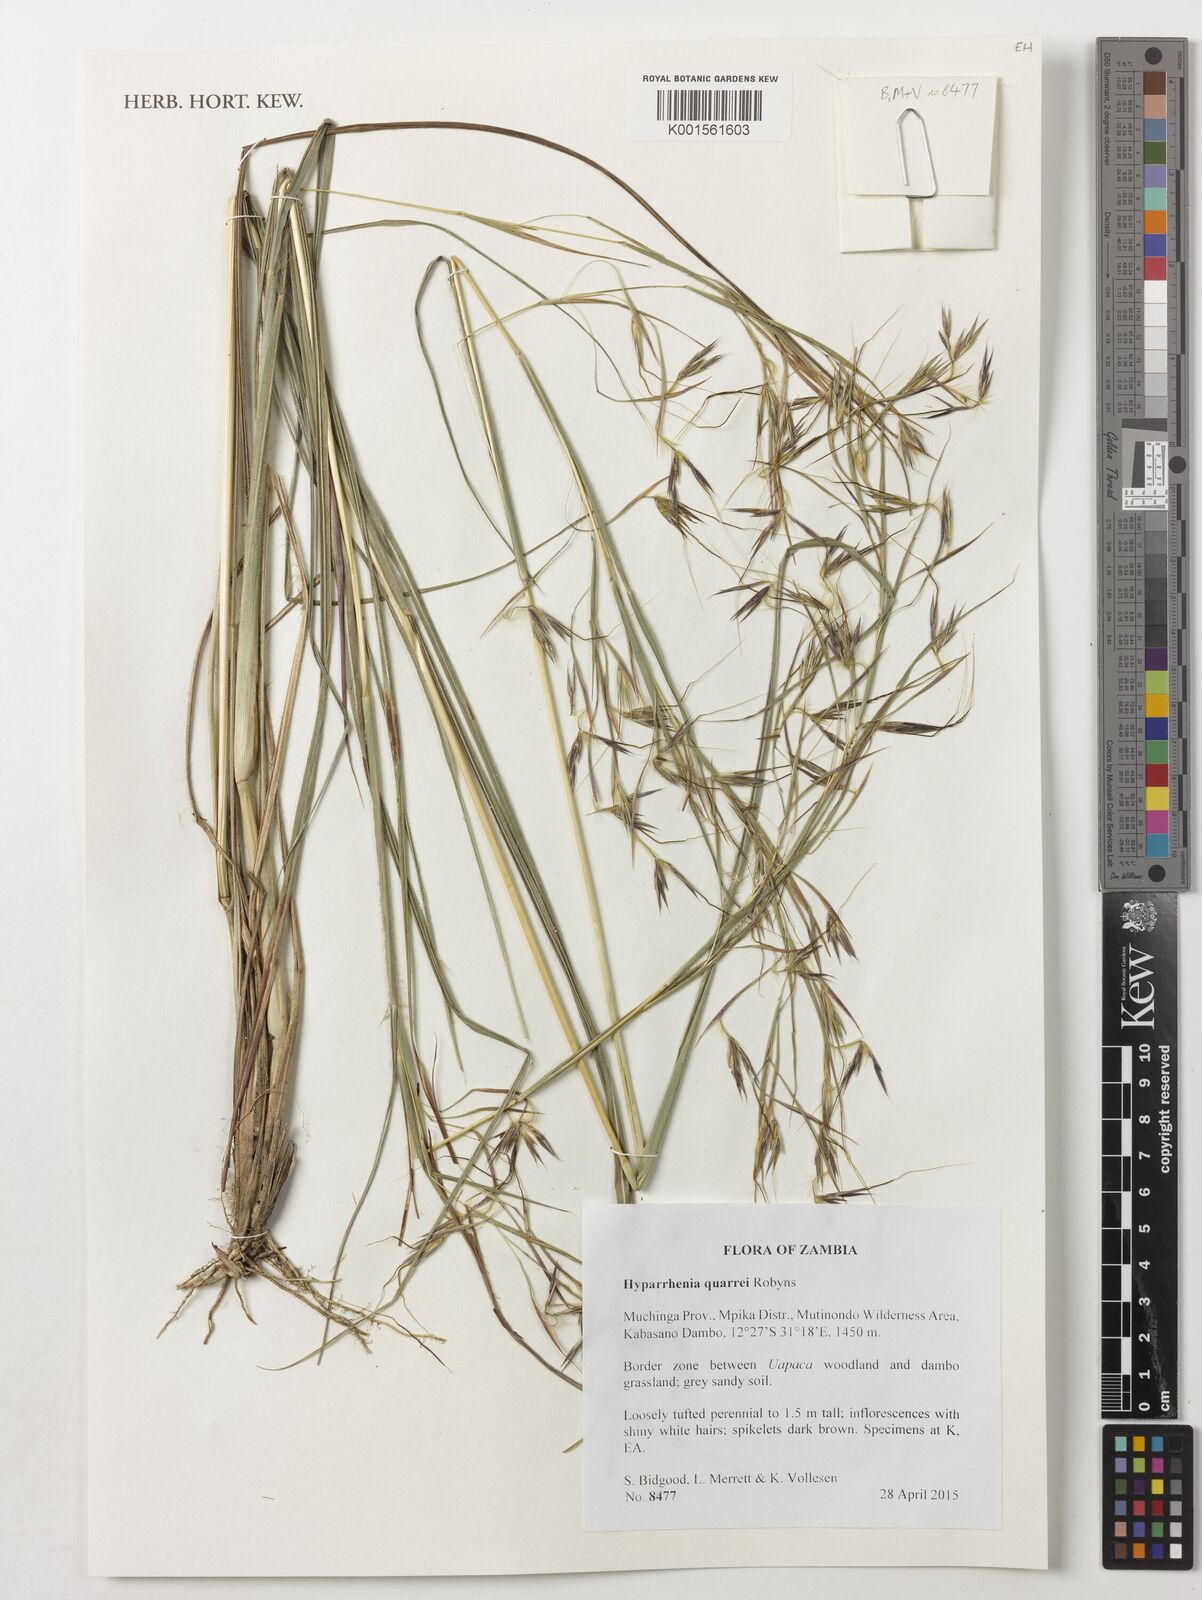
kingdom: Plantae
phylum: Tracheophyta
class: Liliopsida
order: Poales
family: Poaceae
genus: Hyparrhenia
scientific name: Hyparrhenia quarrei
